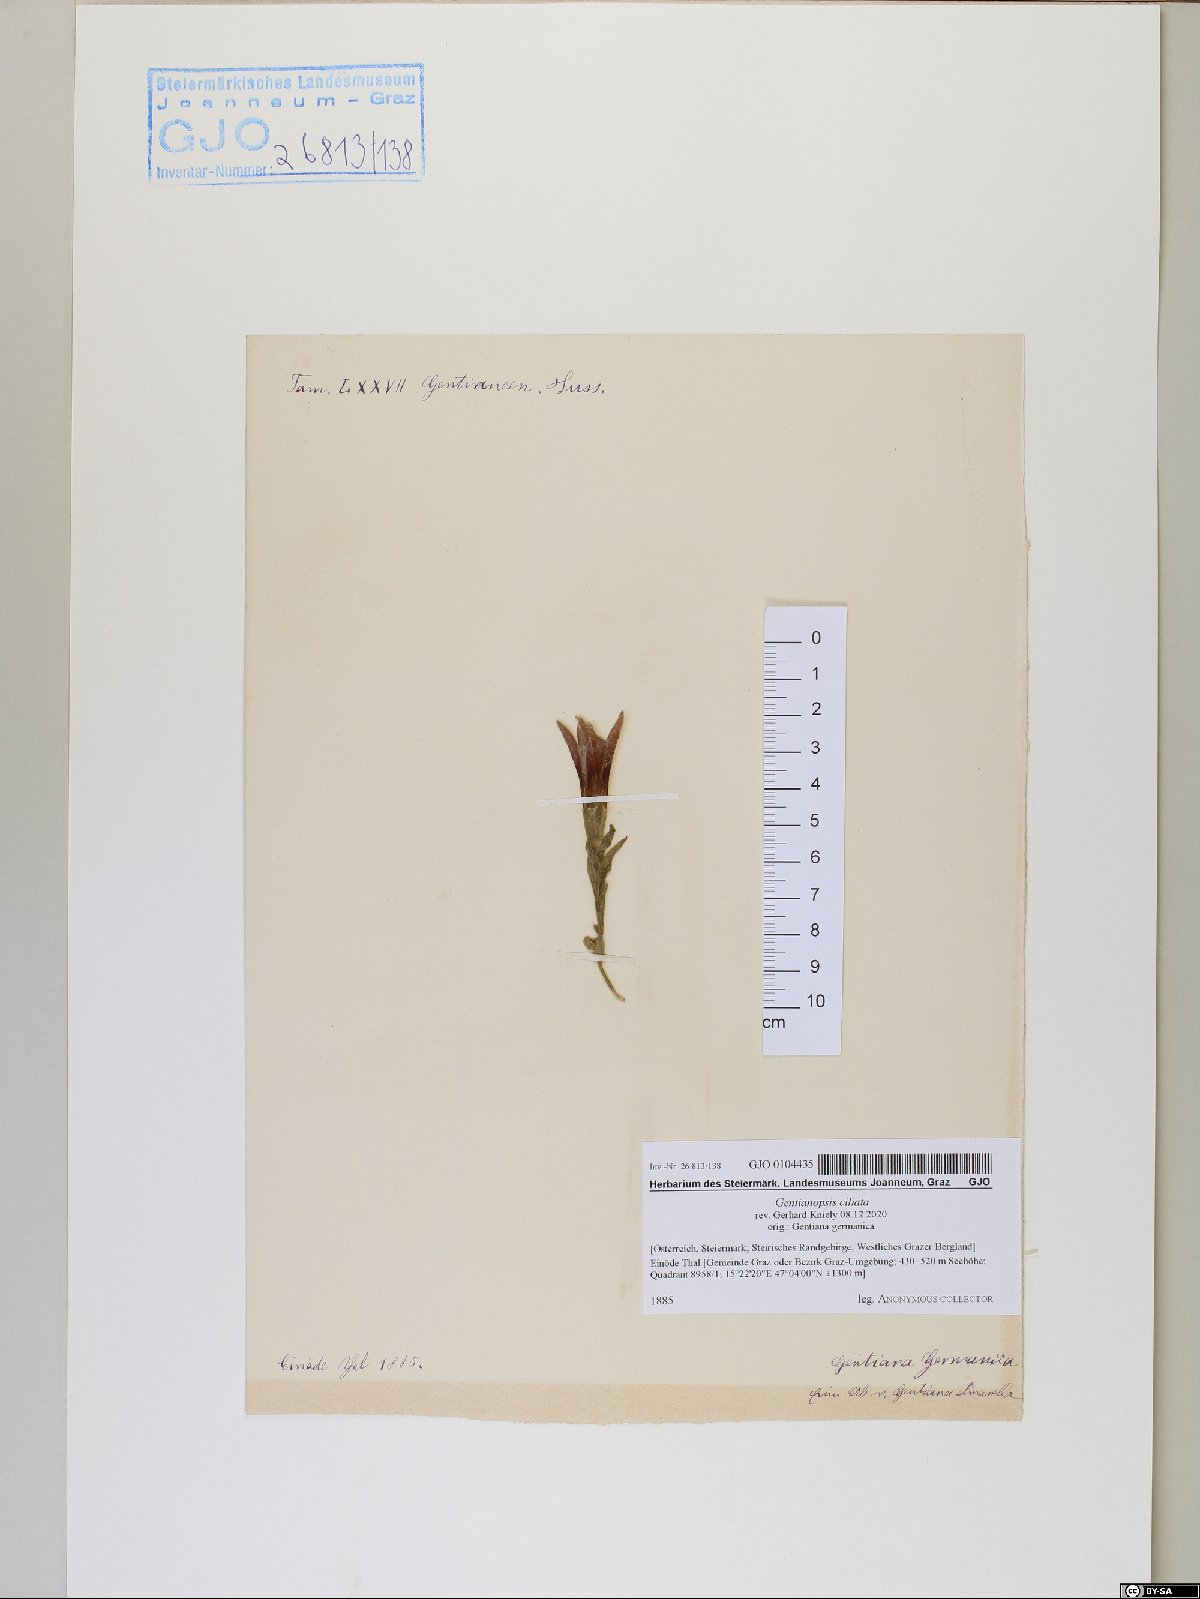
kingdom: Plantae
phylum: Tracheophyta
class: Magnoliopsida
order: Gentianales
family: Gentianaceae
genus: Gentianopsis
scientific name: Gentianopsis ciliata
